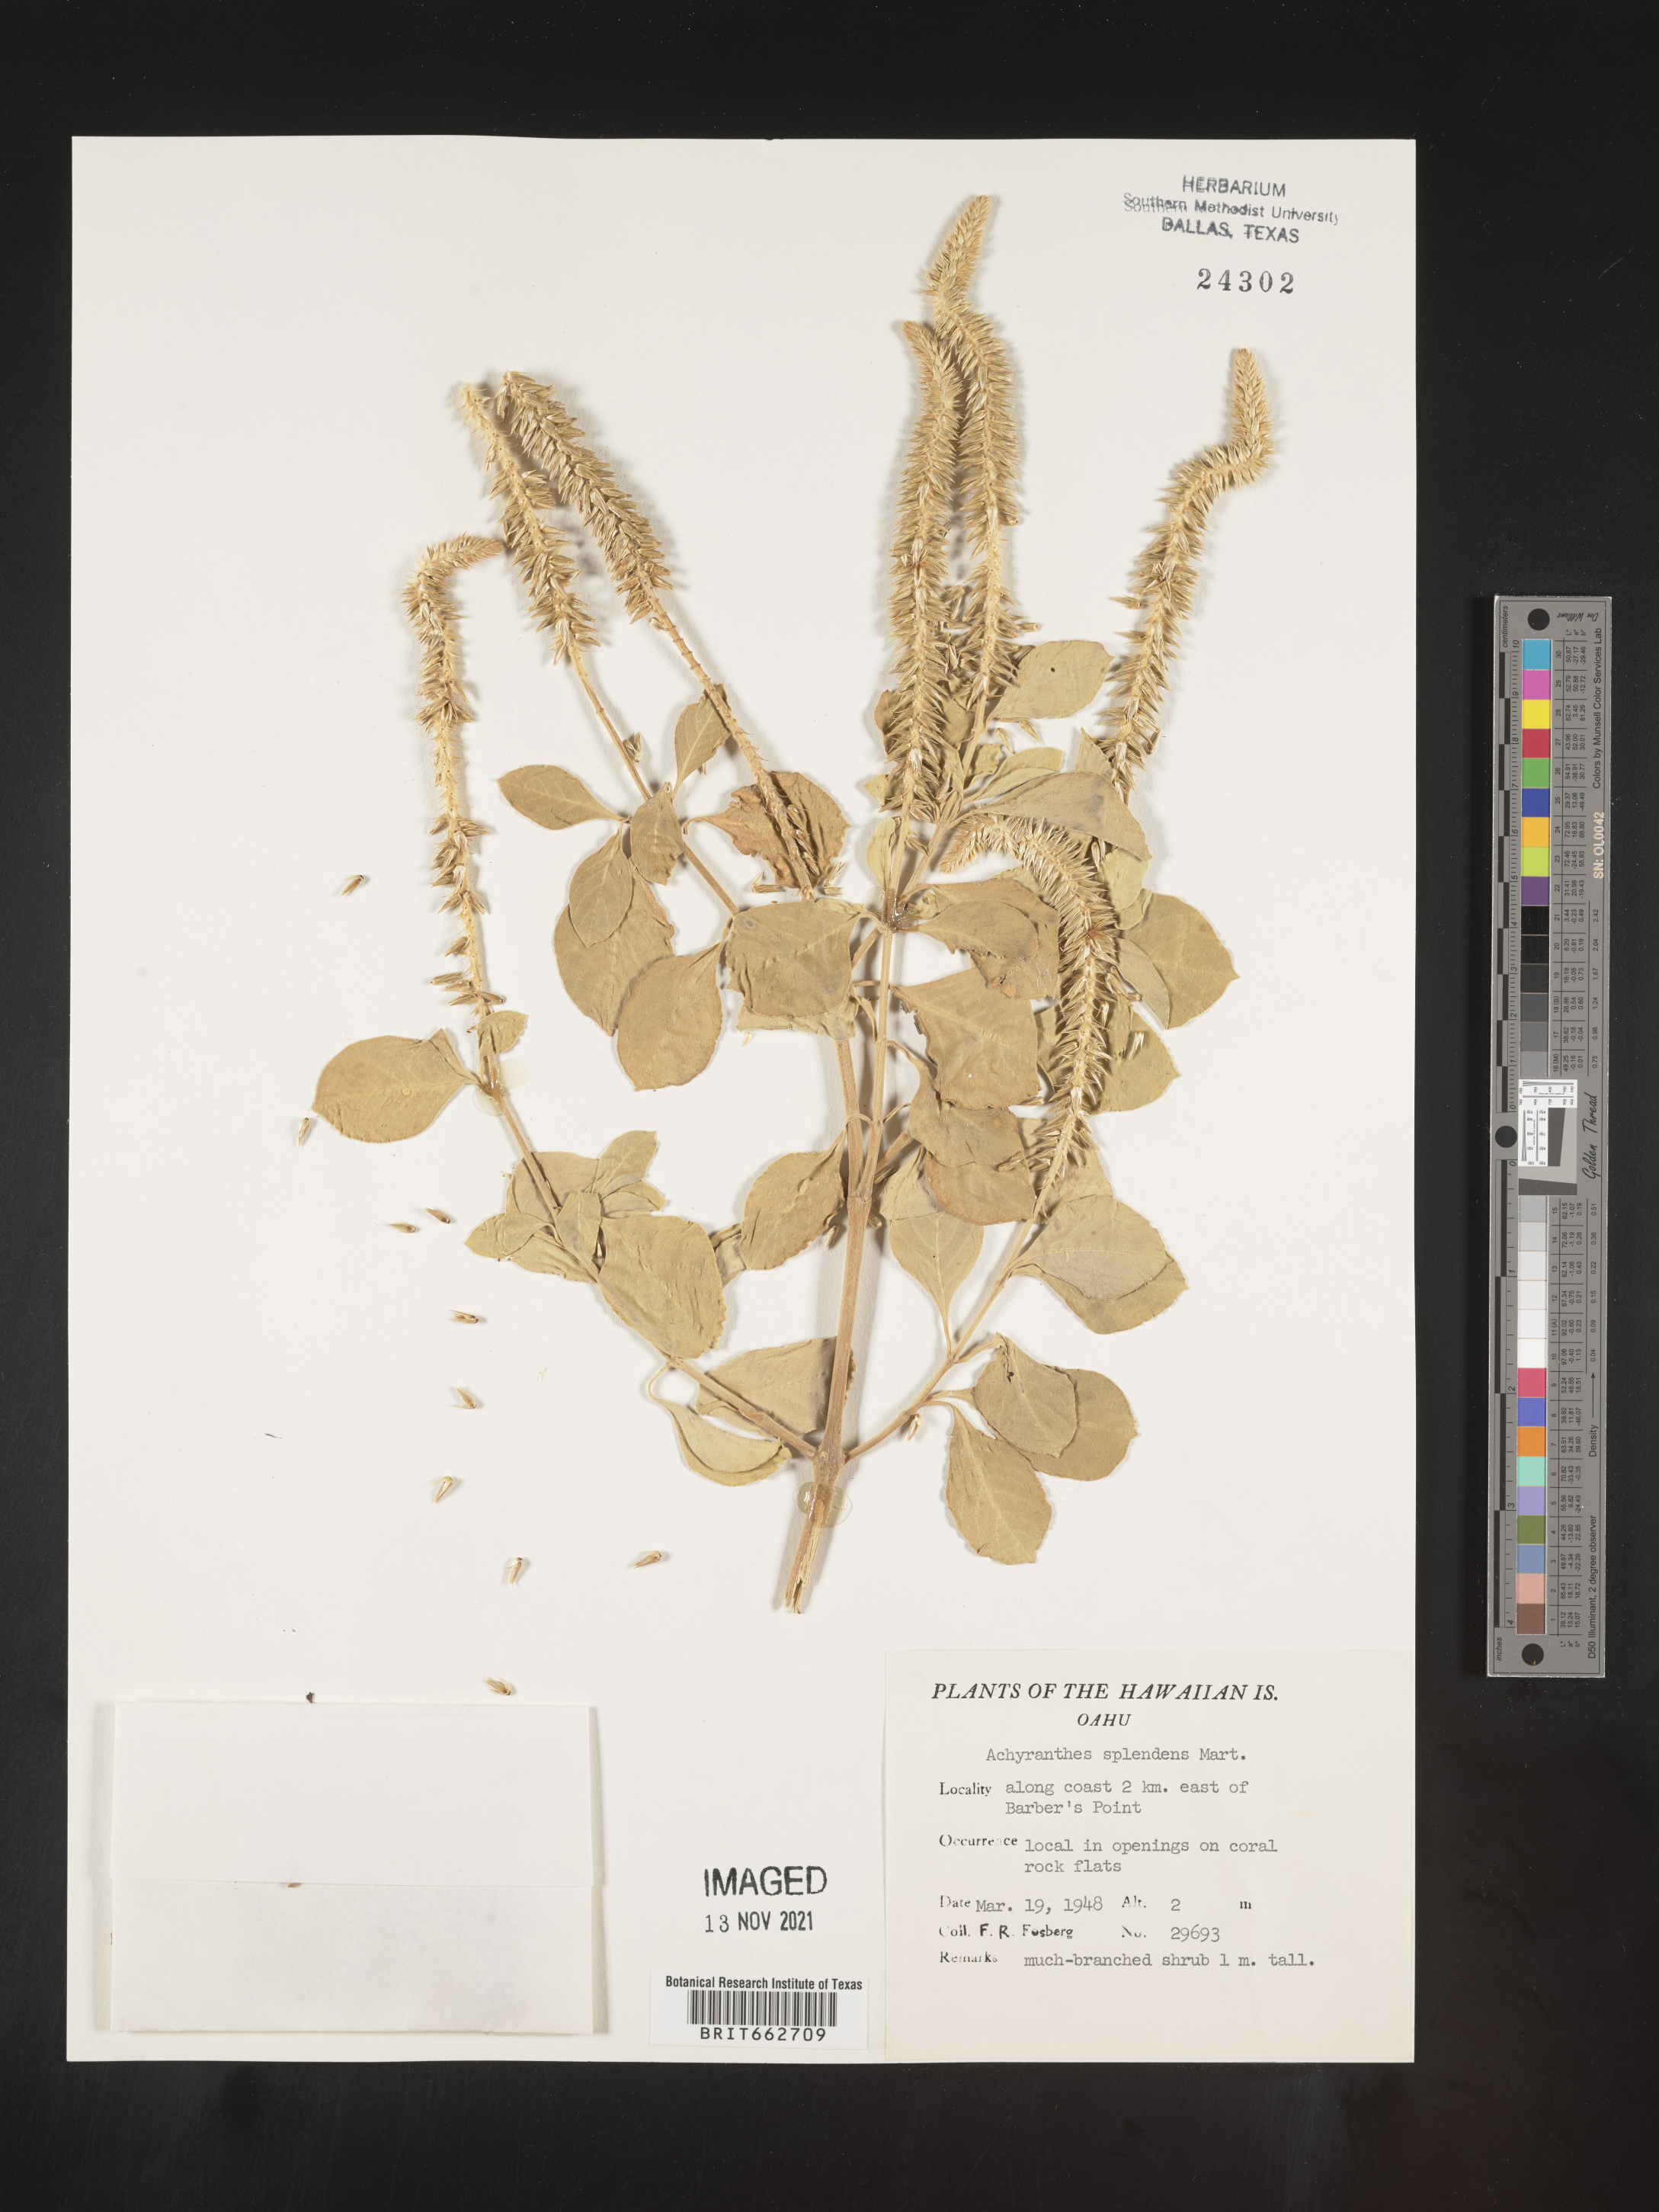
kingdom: Plantae
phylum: Tracheophyta
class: Magnoliopsida
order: Caryophyllales
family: Amaranthaceae
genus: Achyranthes
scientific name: Achyranthes
